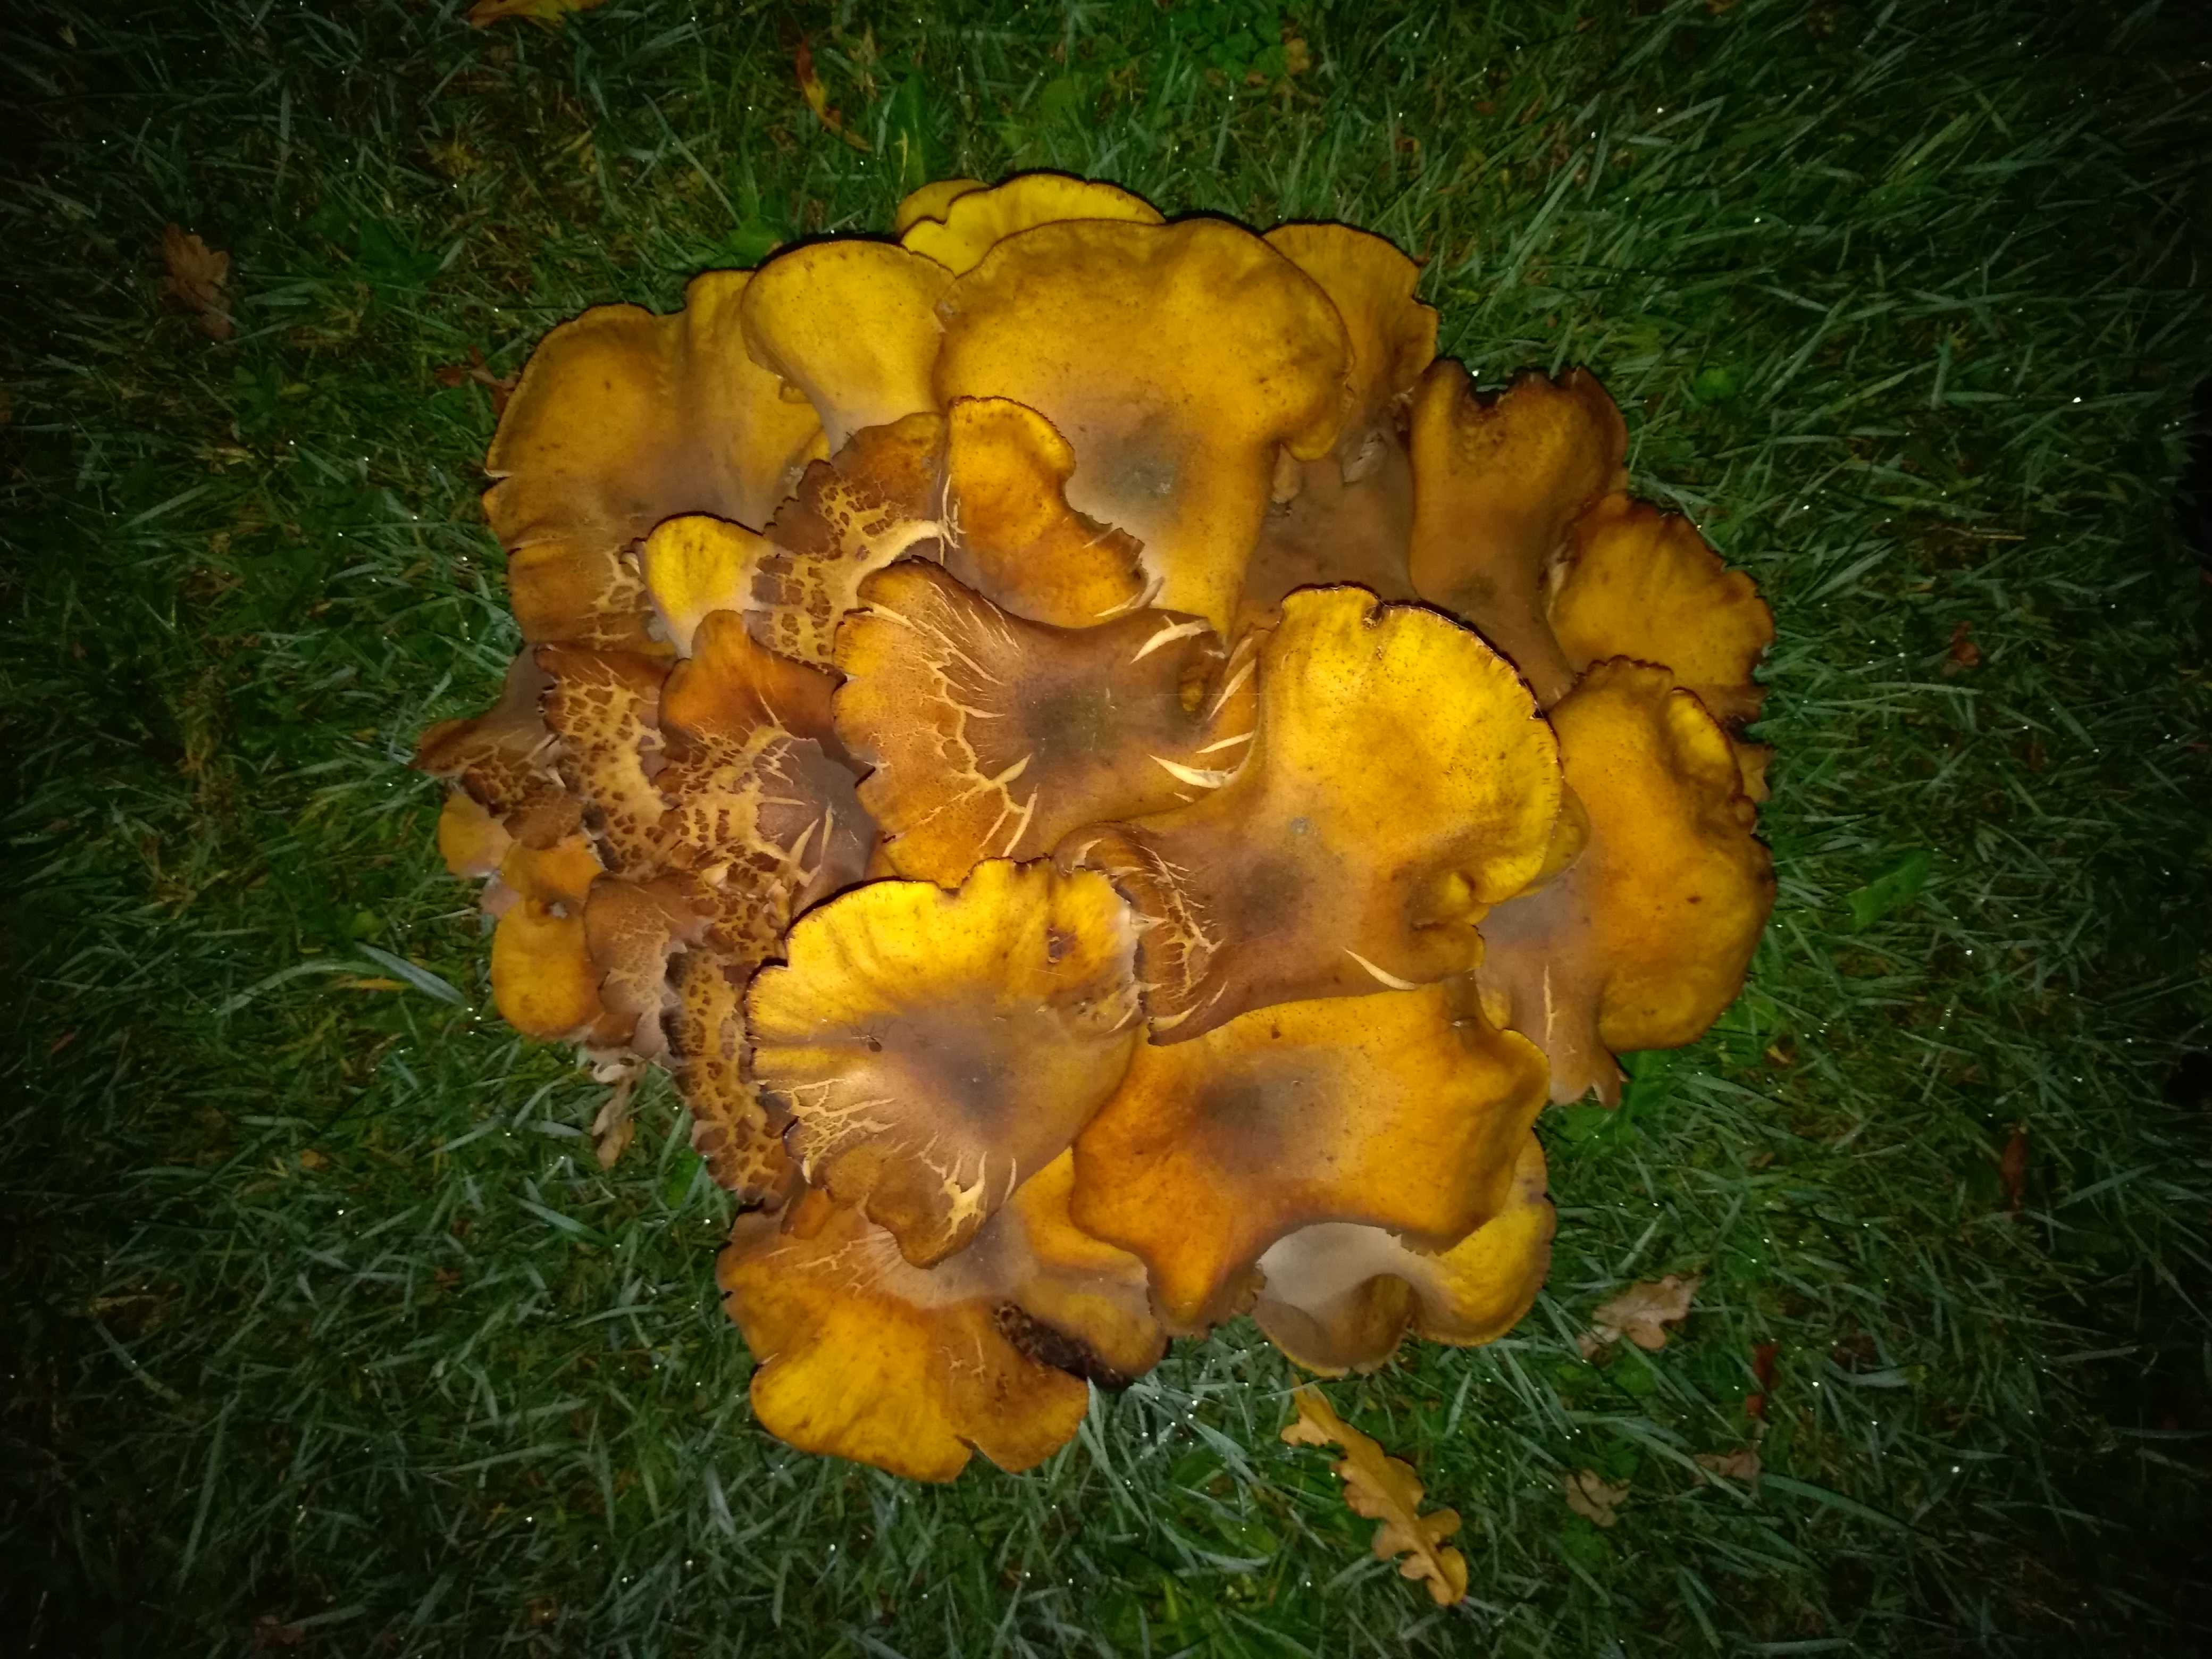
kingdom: Fungi
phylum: Basidiomycota
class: Agaricomycetes
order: Agaricales
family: Physalacriaceae
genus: Armillaria
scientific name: Armillaria mellea
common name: ægte honningsvamp
